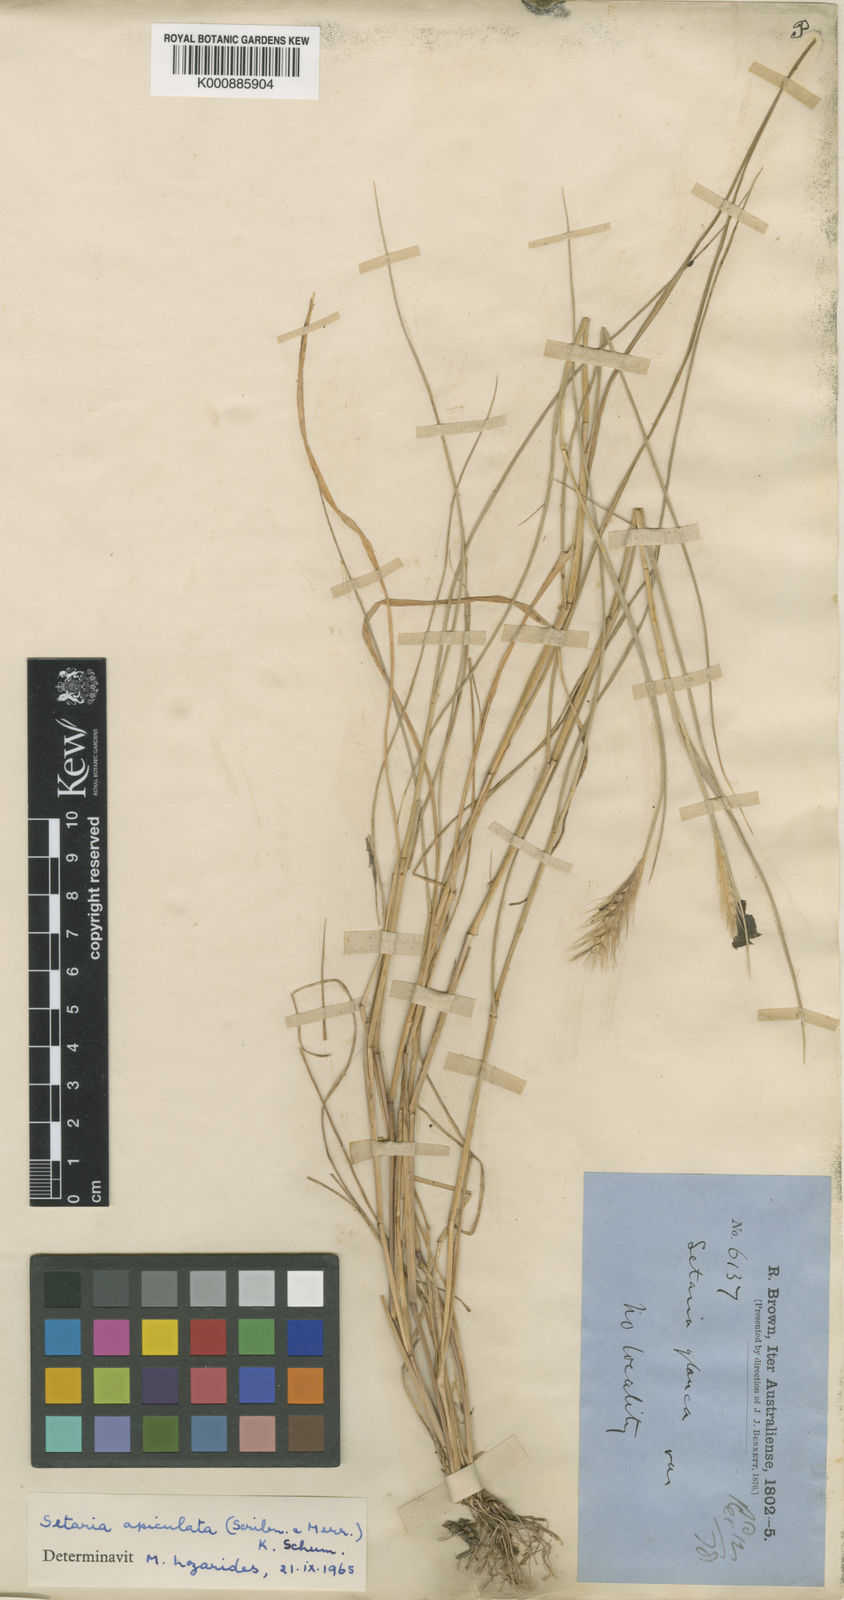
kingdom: Plantae
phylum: Tracheophyta
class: Liliopsida
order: Poales
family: Poaceae
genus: Setaria
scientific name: Setaria apiculata
